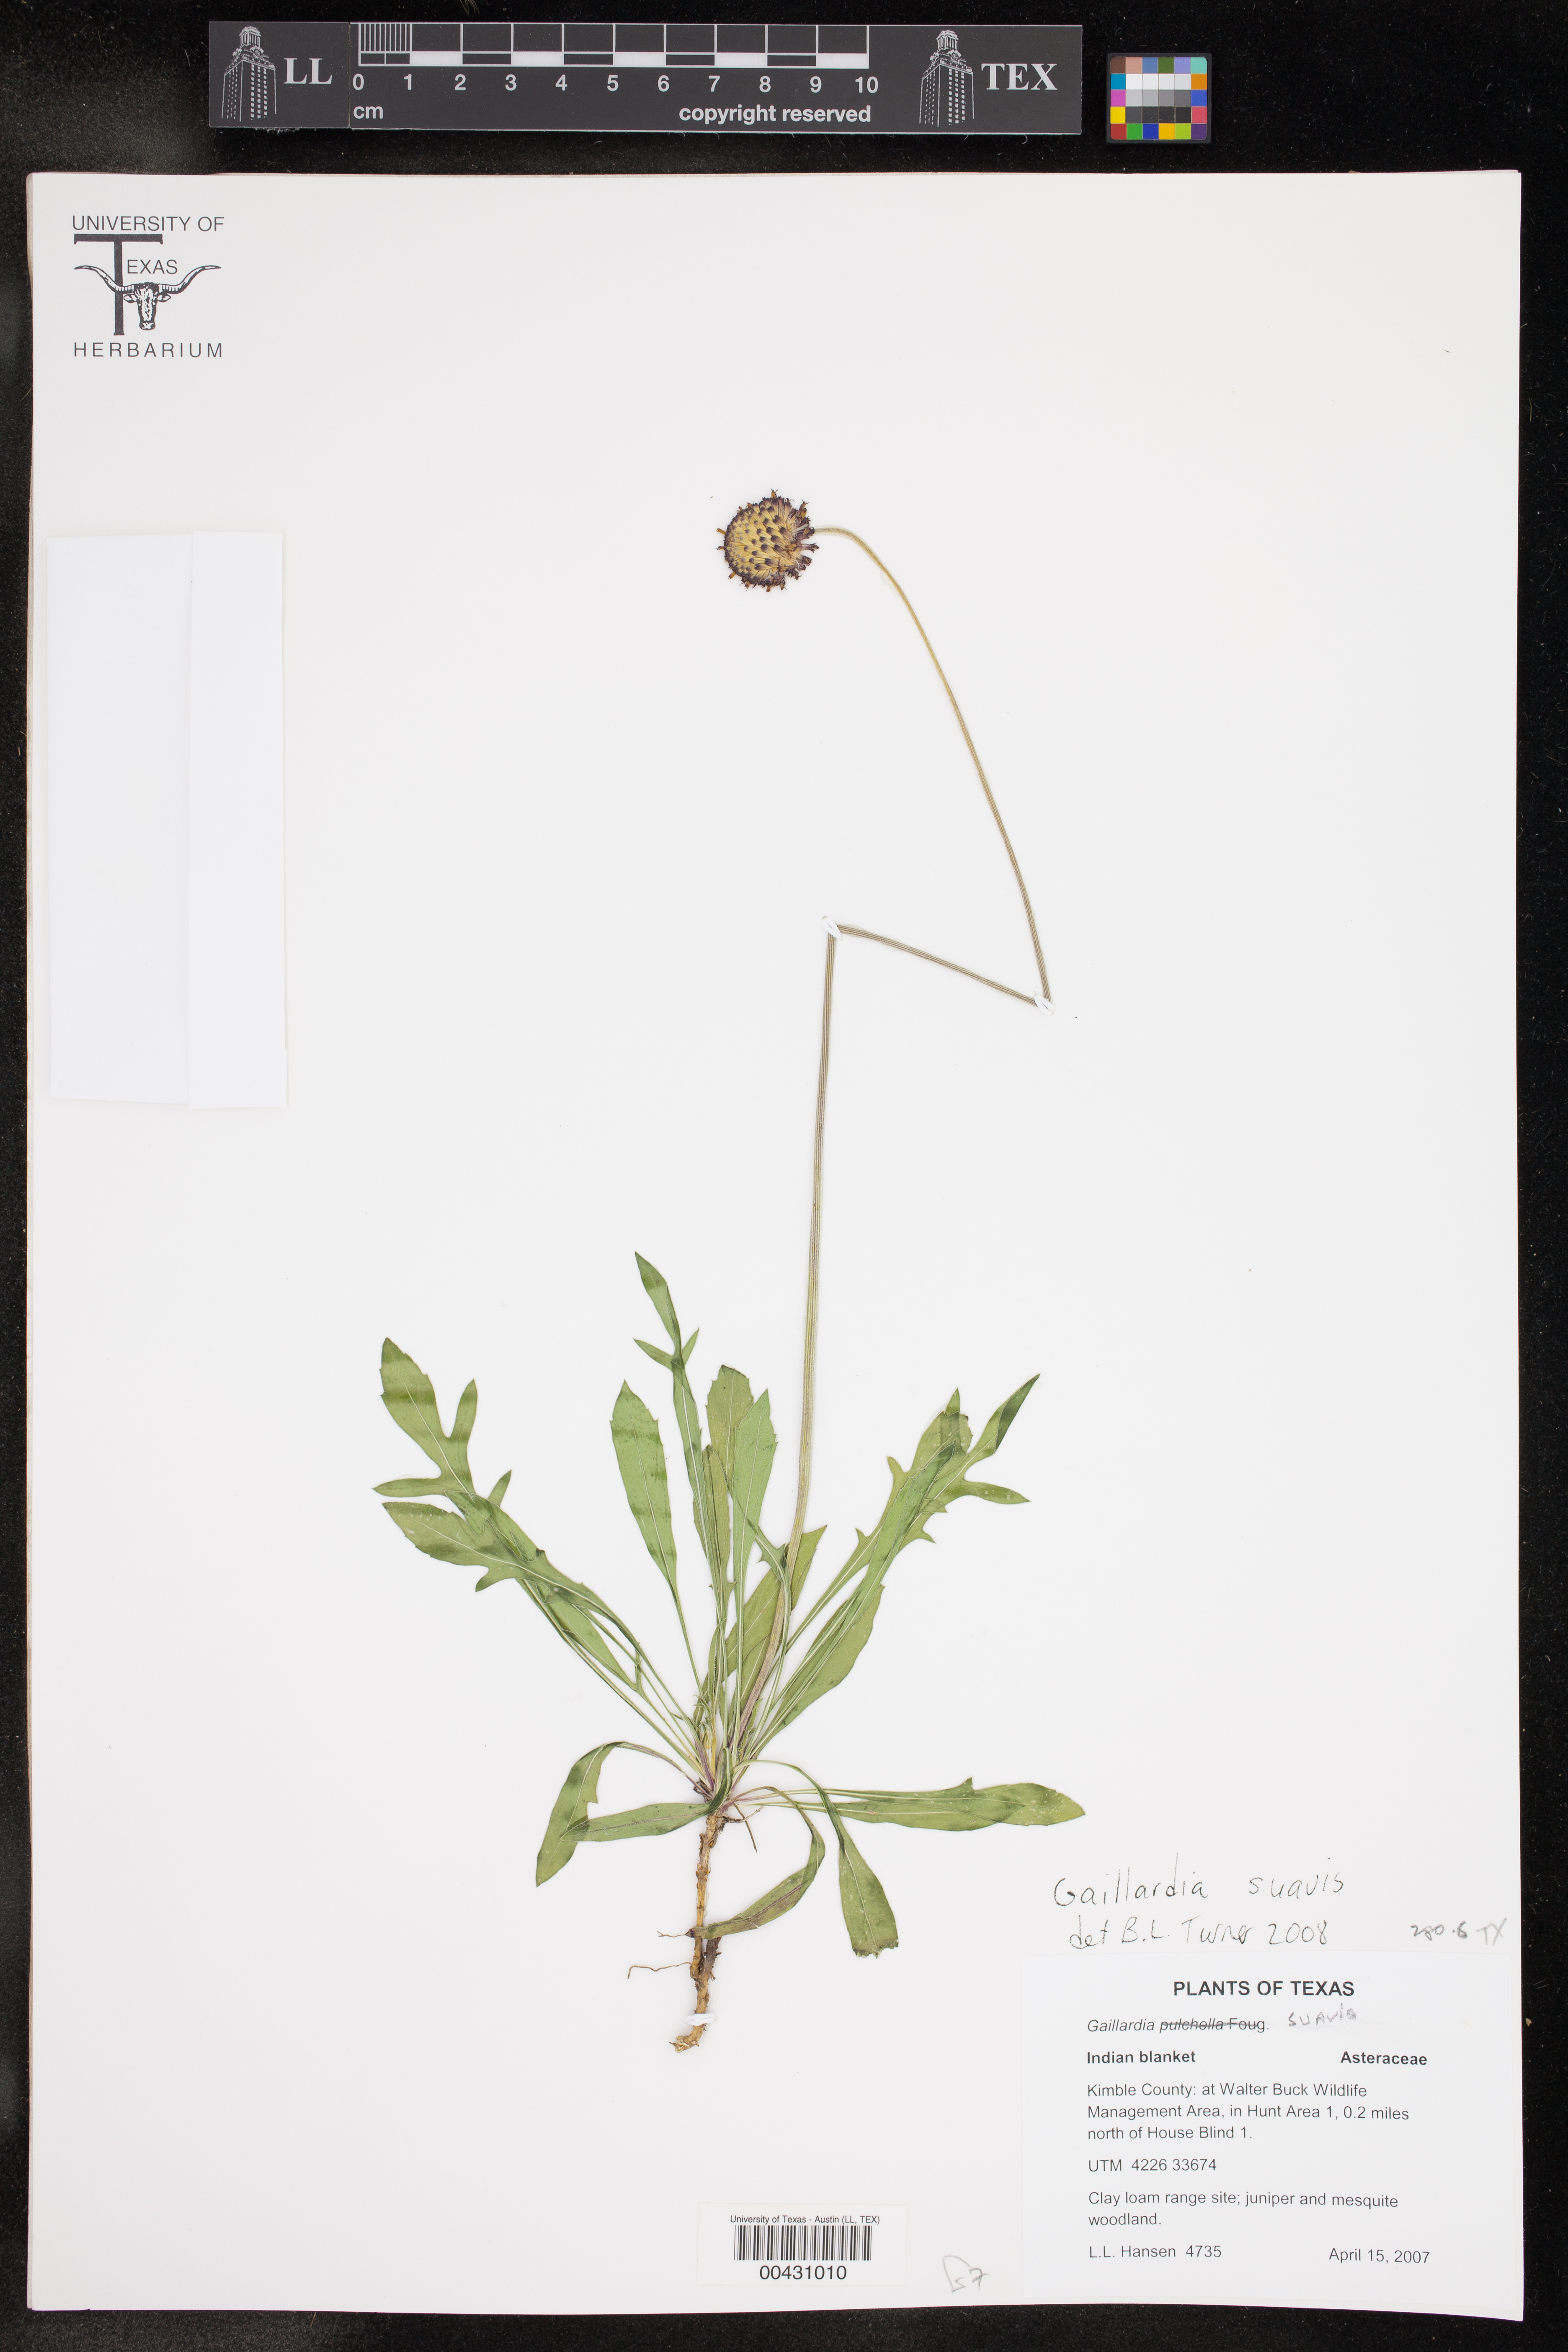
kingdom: Plantae
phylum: Tracheophyta
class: Magnoliopsida
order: Asterales
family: Asteraceae
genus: Gaillardia
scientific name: Gaillardia suavis
